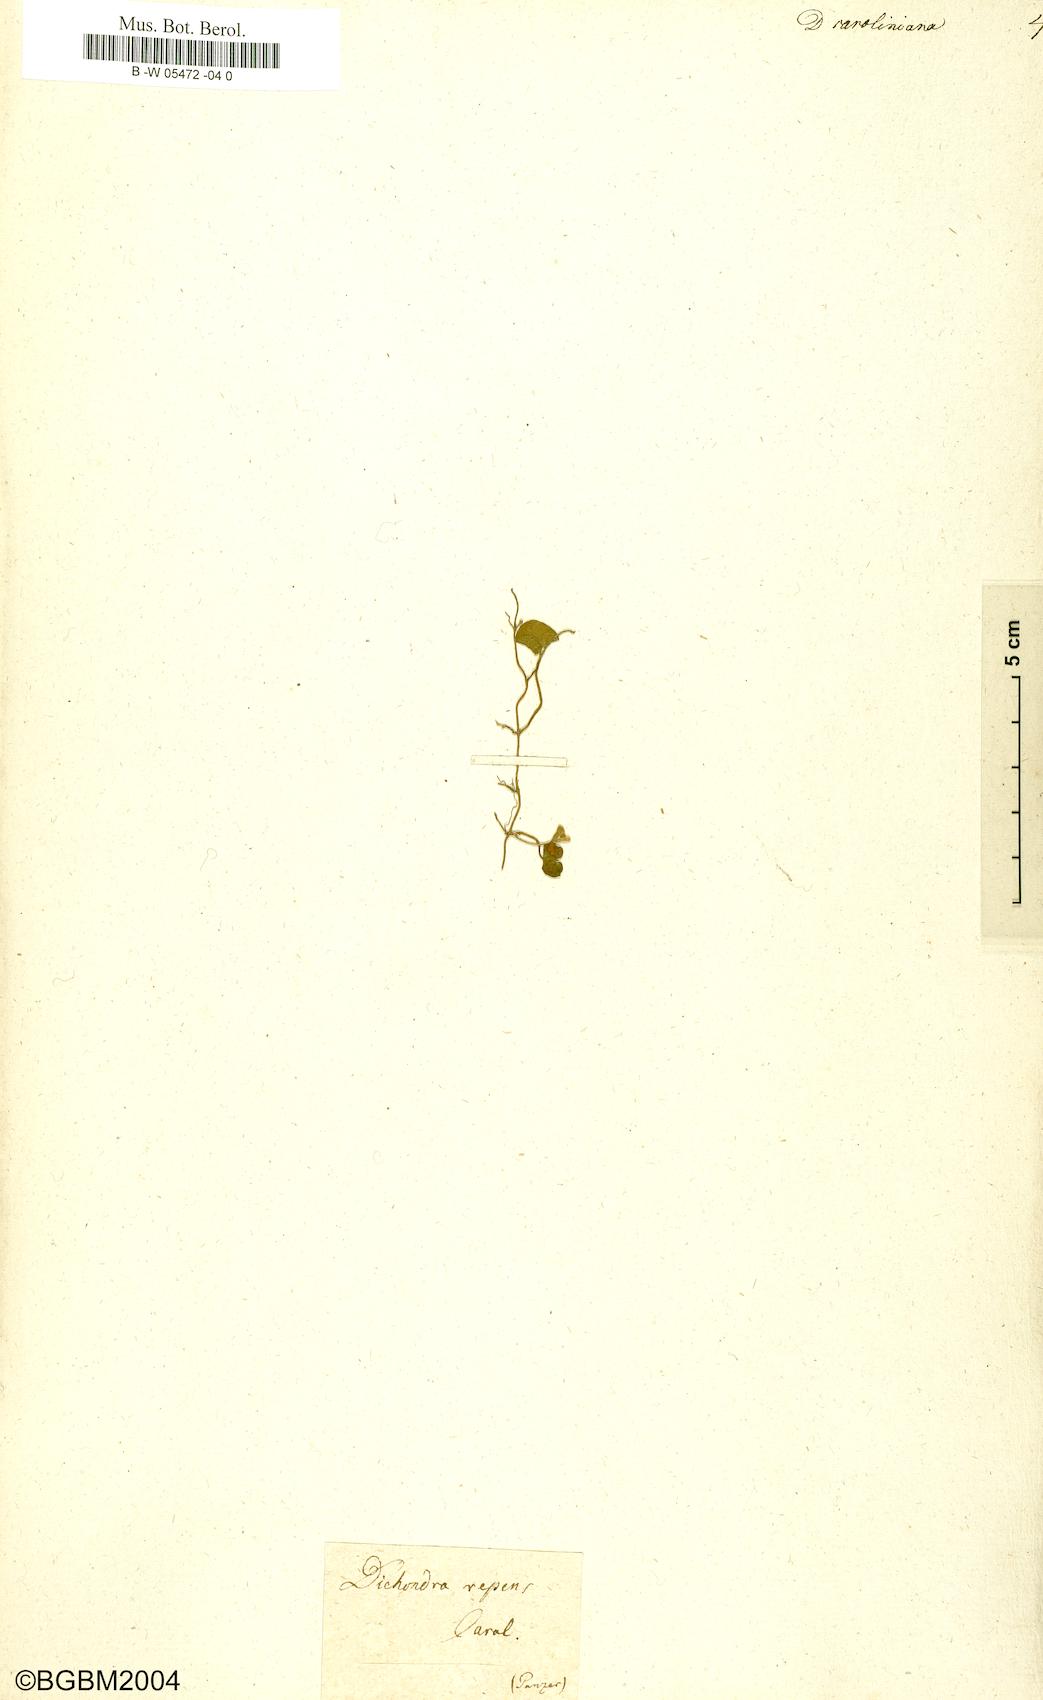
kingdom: Plantae
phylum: Tracheophyta
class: Magnoliopsida
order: Solanales
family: Convolvulaceae
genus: Dichondra
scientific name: Dichondra carolinensis
